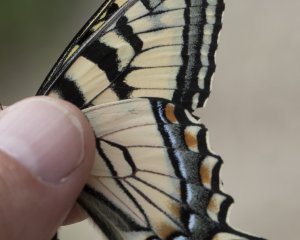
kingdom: Animalia
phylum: Arthropoda
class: Insecta
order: Lepidoptera
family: Papilionidae
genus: Pterourus
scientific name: Pterourus canadensis
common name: Canadian Tiger Swallowtail
